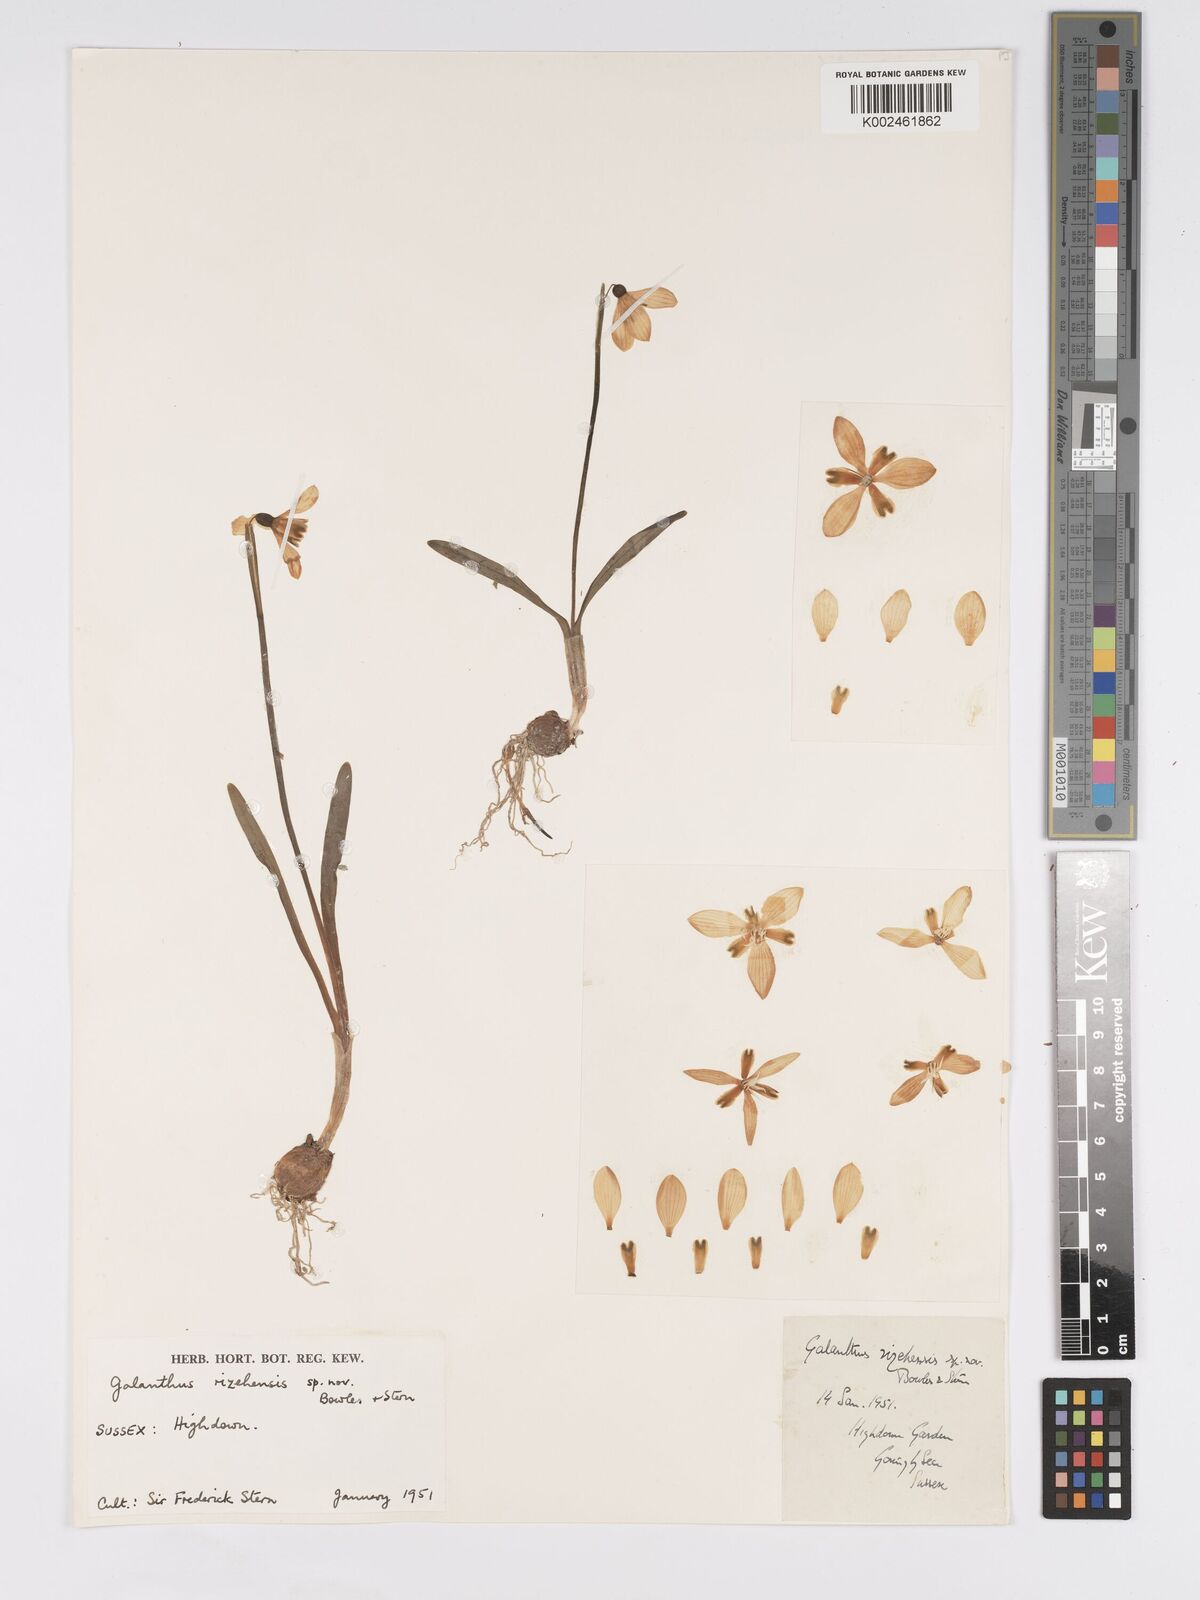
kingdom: Plantae
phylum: Tracheophyta
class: Liliopsida
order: Asparagales
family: Amaryllidaceae
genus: Galanthus
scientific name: Galanthus rizehensis
